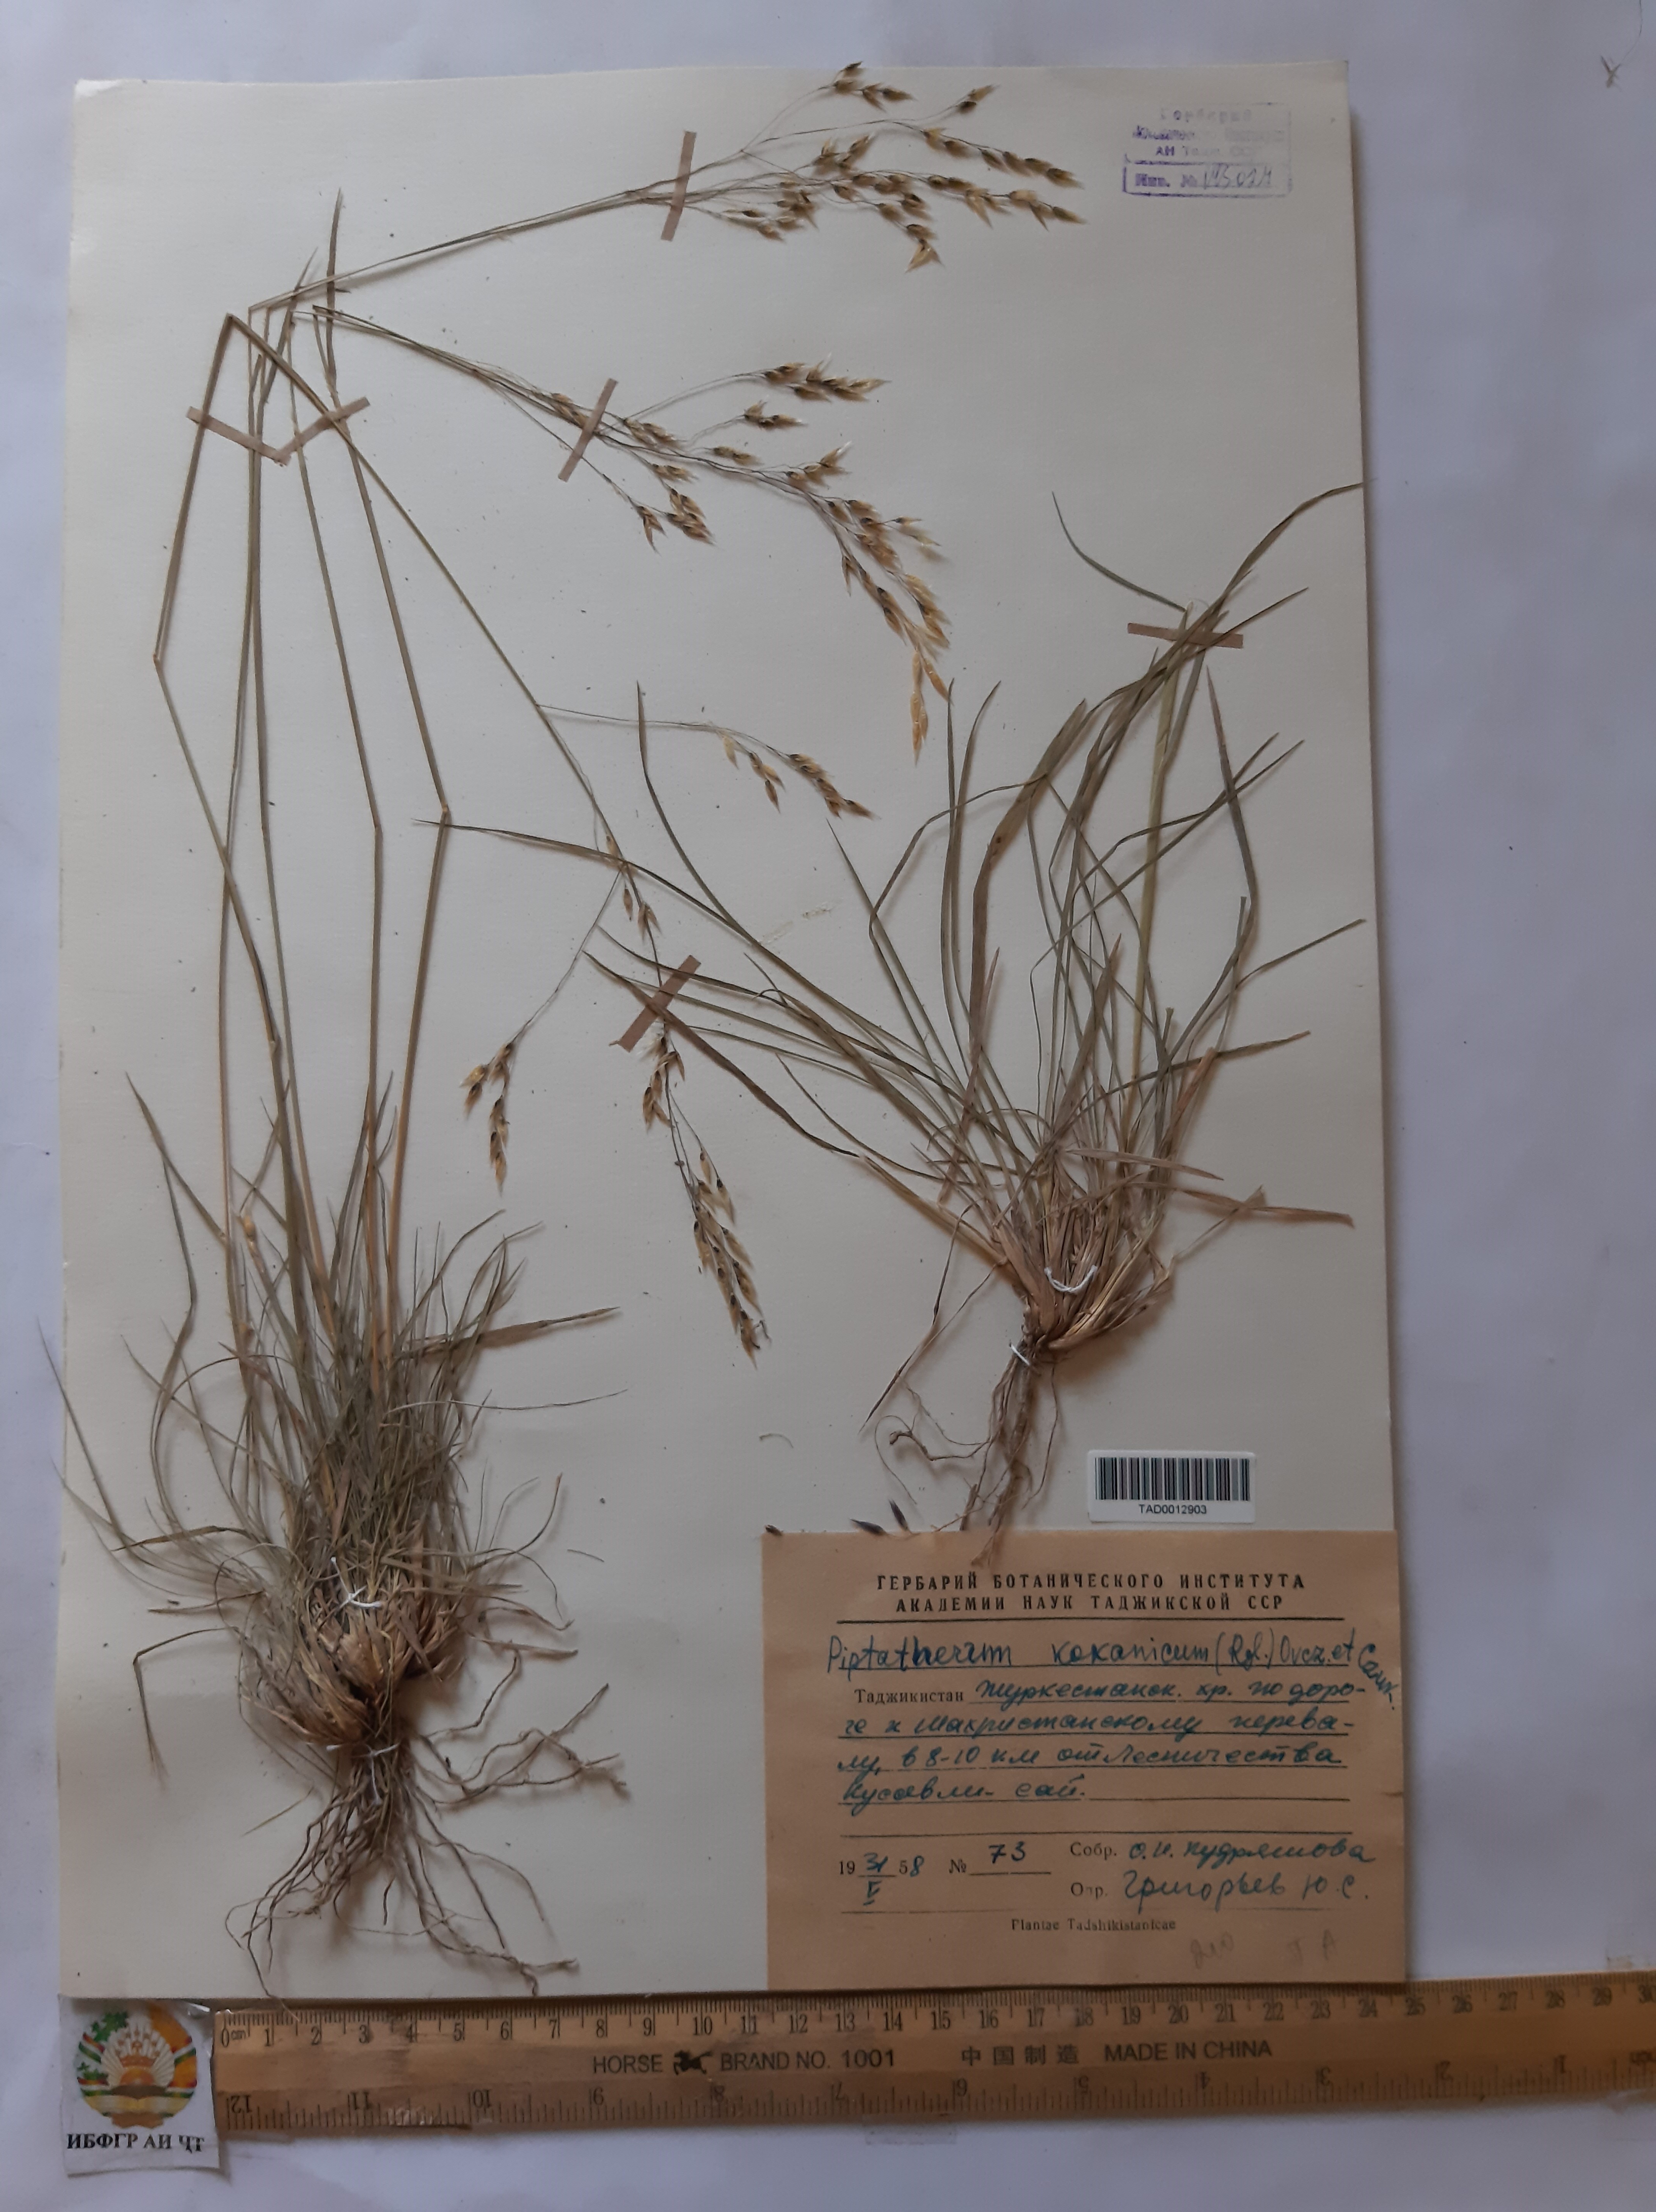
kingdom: Plantae
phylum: Tracheophyta
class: Liliopsida
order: Poales
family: Poaceae
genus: Piptatherum
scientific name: Piptatherum songaricum
